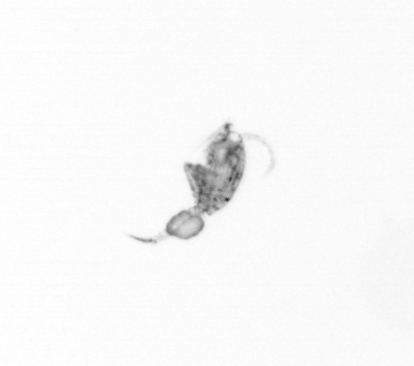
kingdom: Animalia
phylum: Arthropoda
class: Copepoda
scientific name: Copepoda
